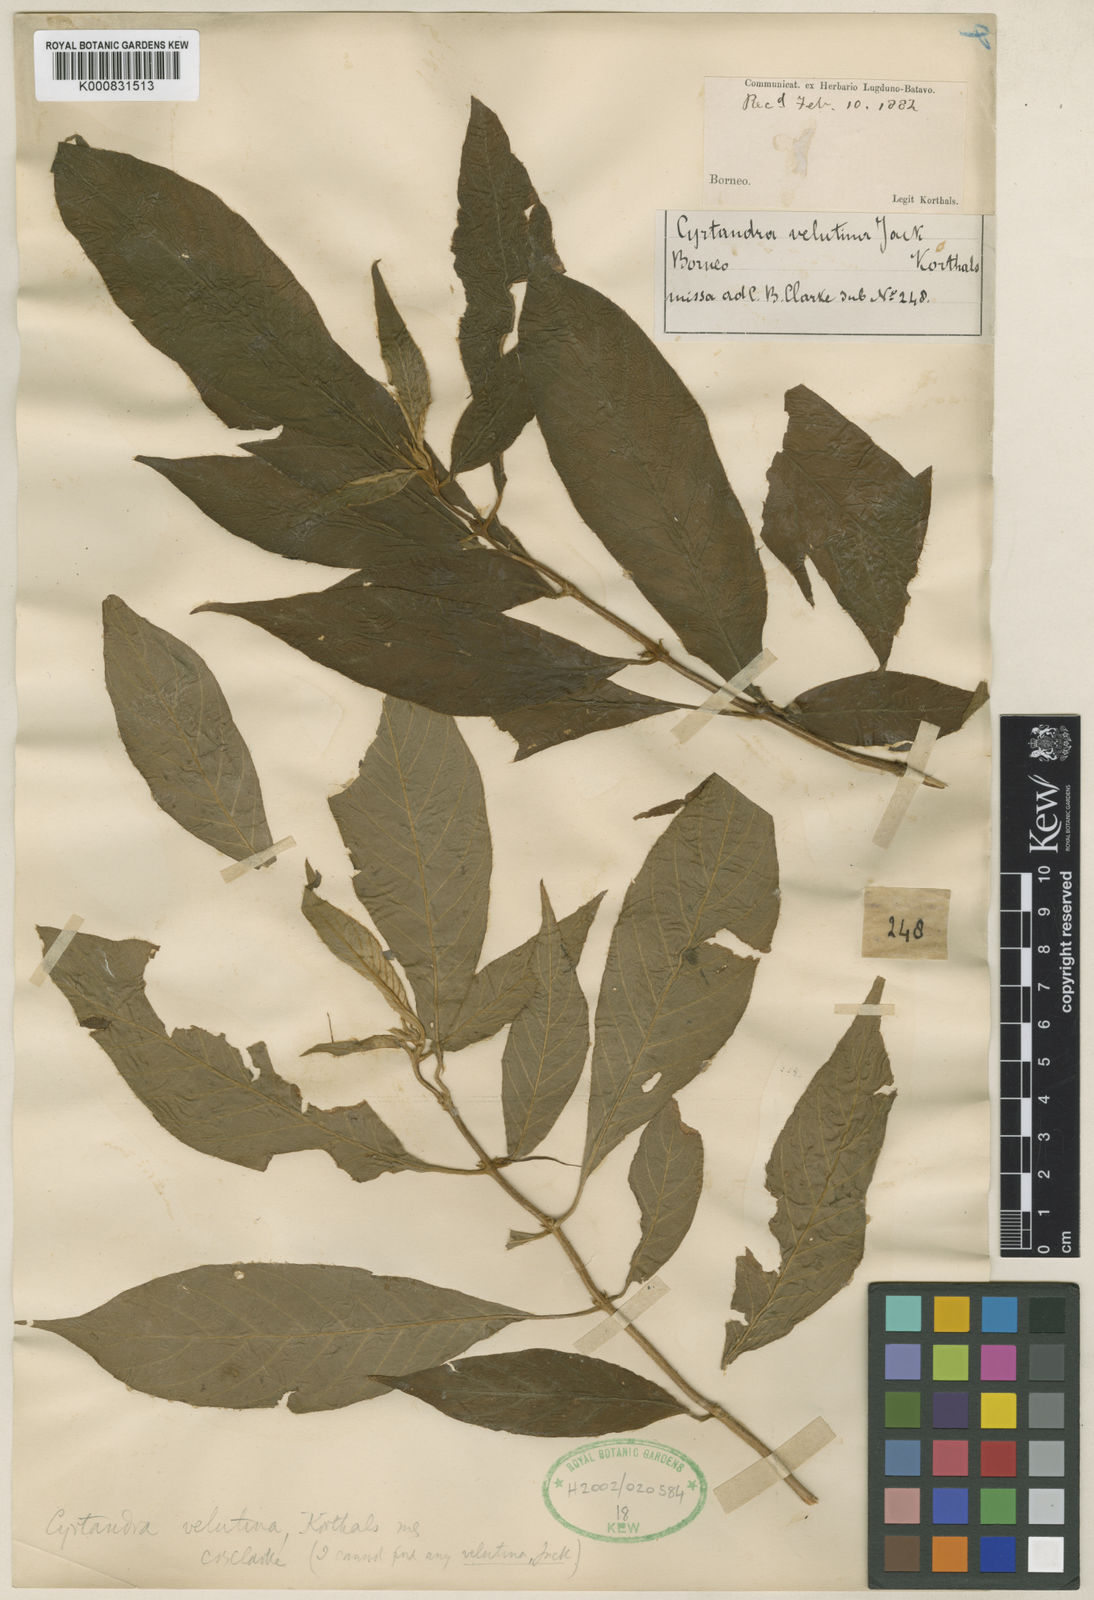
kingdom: Plantae
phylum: Tracheophyta
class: Magnoliopsida
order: Lamiales
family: Gesneriaceae
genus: Cyrtandra
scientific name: Cyrtandra velutina
